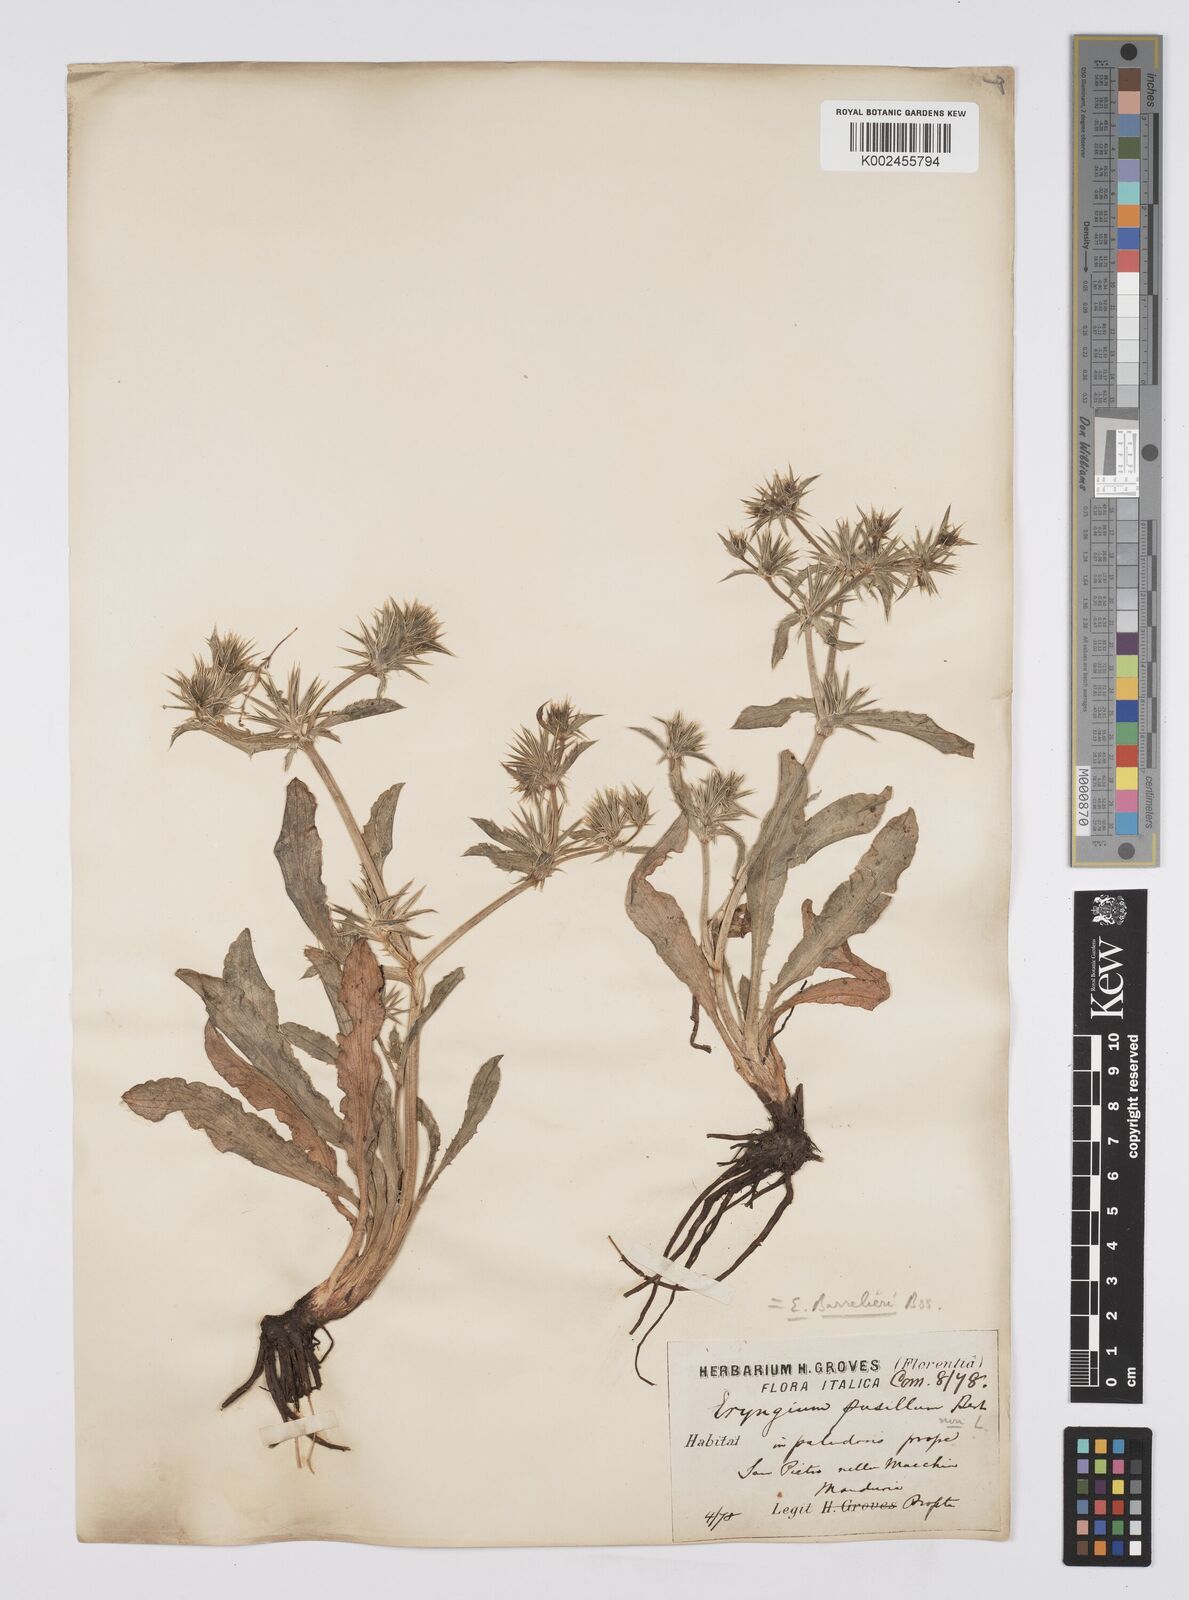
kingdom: Plantae
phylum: Tracheophyta
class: Magnoliopsida
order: Apiales
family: Apiaceae
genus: Eryngium
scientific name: Eryngium pusillum
